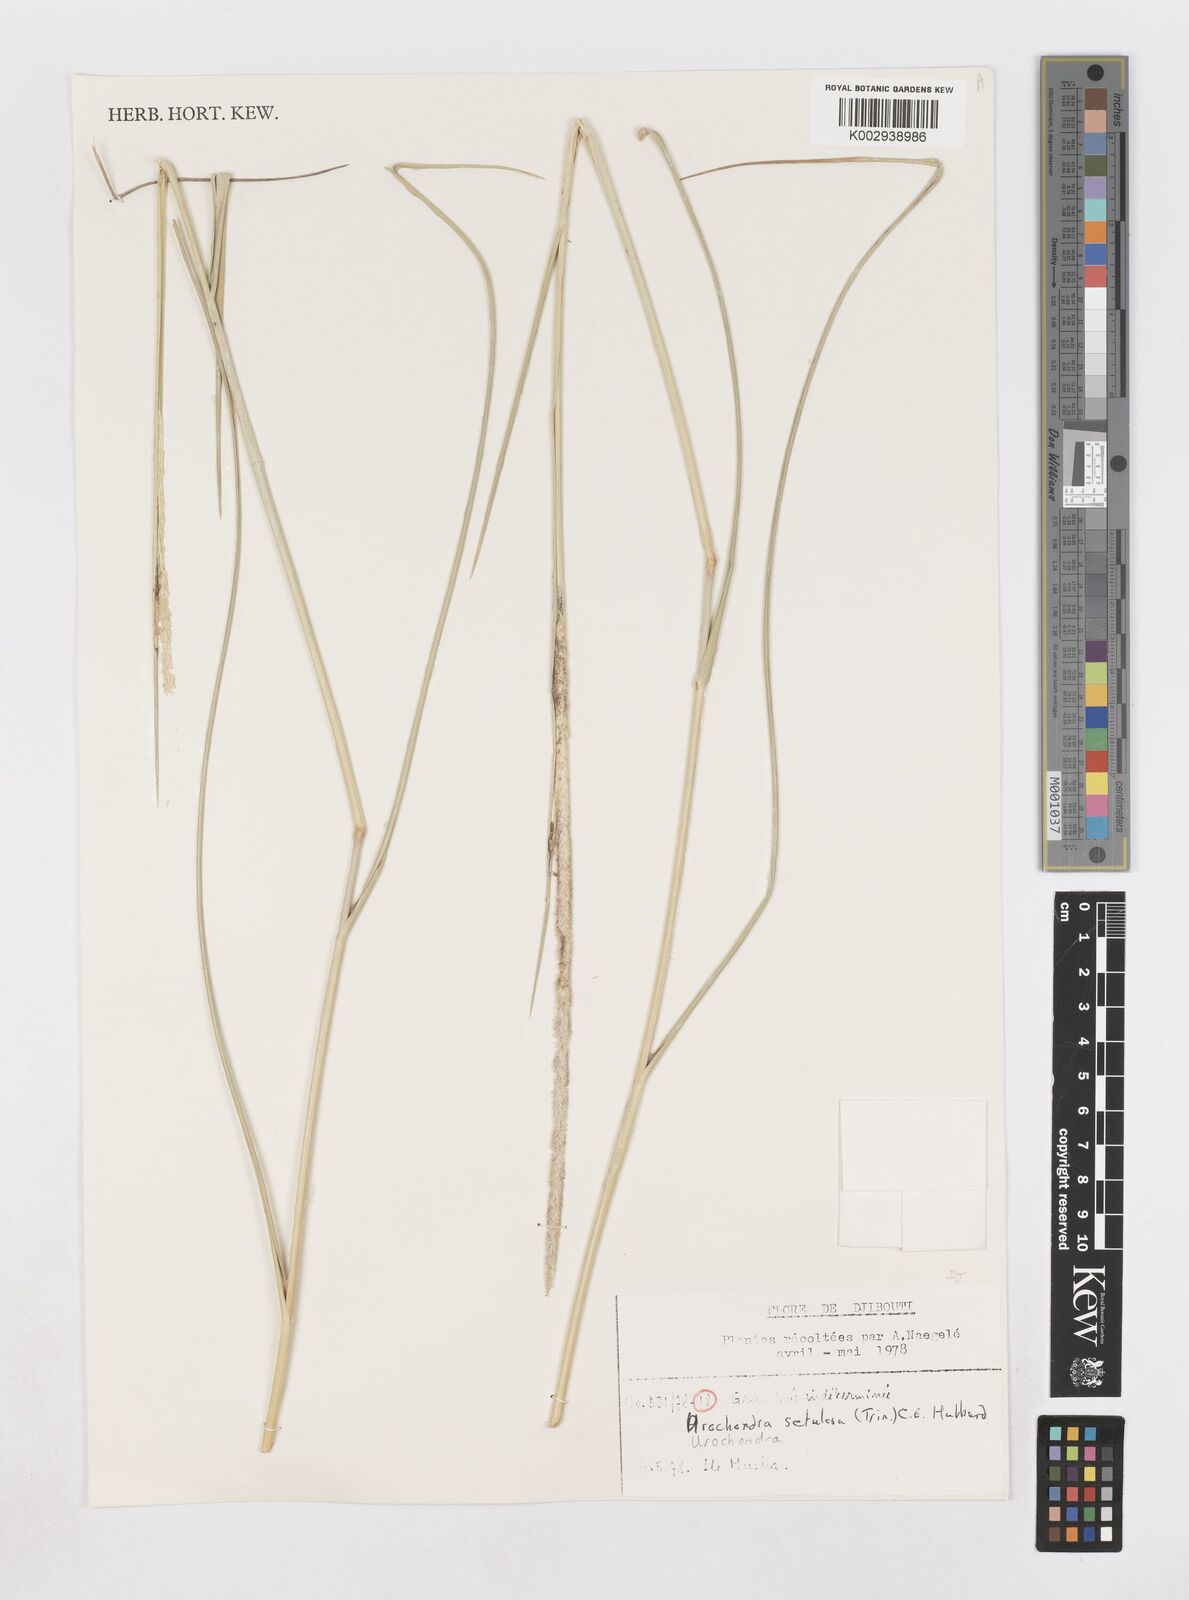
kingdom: Plantae
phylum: Tracheophyta
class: Liliopsida
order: Poales
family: Poaceae
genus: Urochondra
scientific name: Urochondra setulosa
